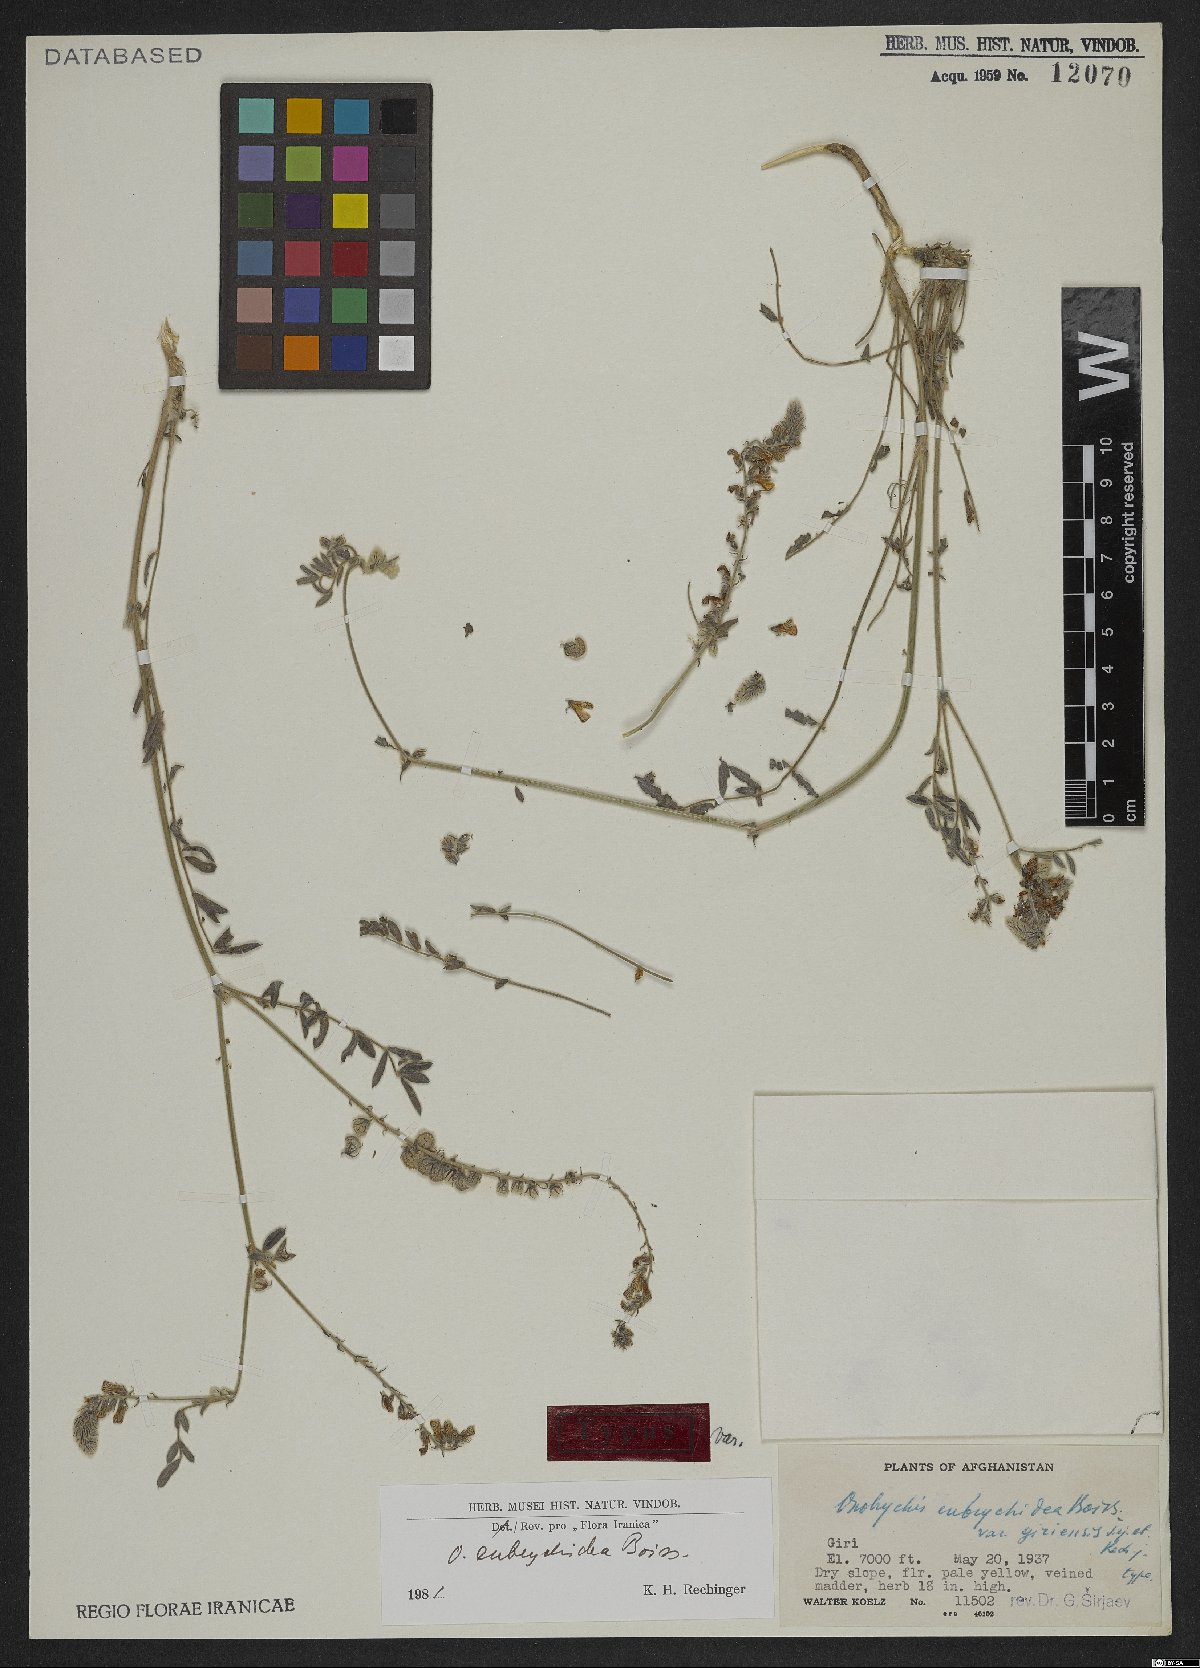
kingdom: Plantae
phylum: Tracheophyta
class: Magnoliopsida
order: Fabales
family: Fabaceae
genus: Onobrychis
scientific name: Onobrychis eubrychidea
